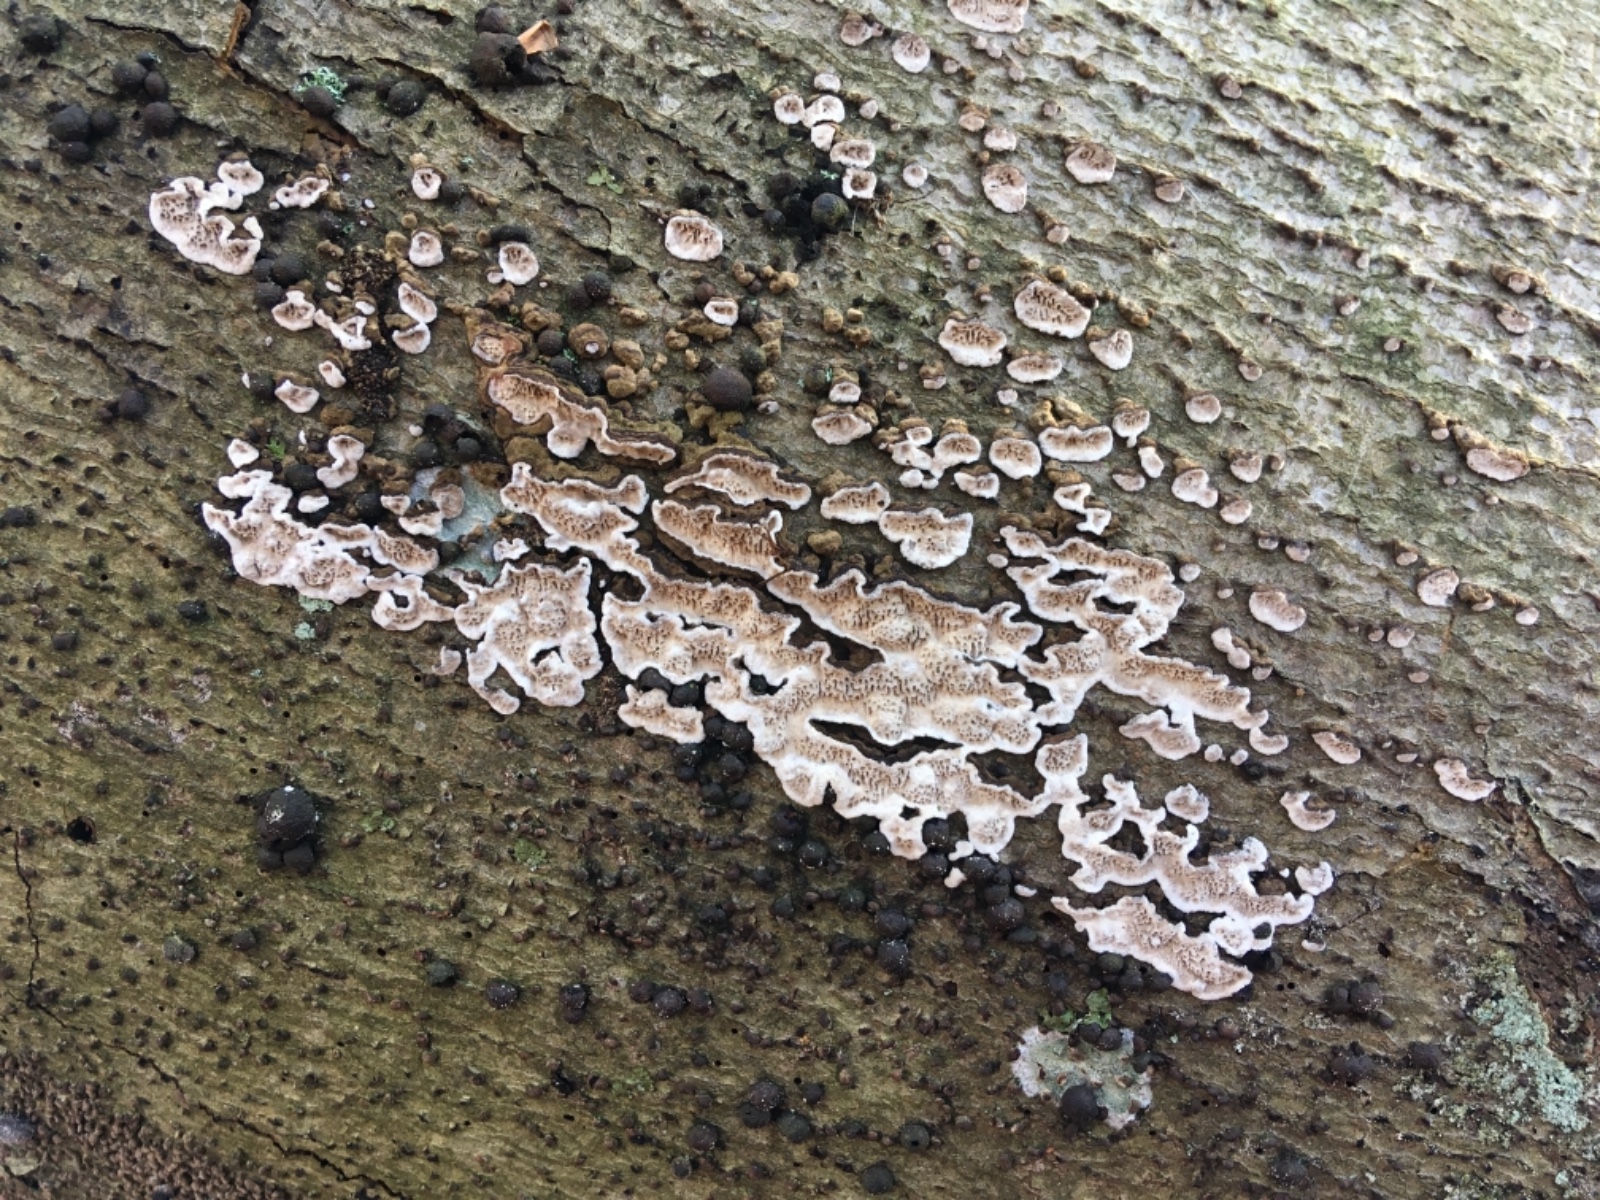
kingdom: Fungi
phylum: Basidiomycota
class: Agaricomycetes
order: Polyporales
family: Polyporaceae
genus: Podofomes
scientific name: Podofomes mollis
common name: blød begporesvamp
